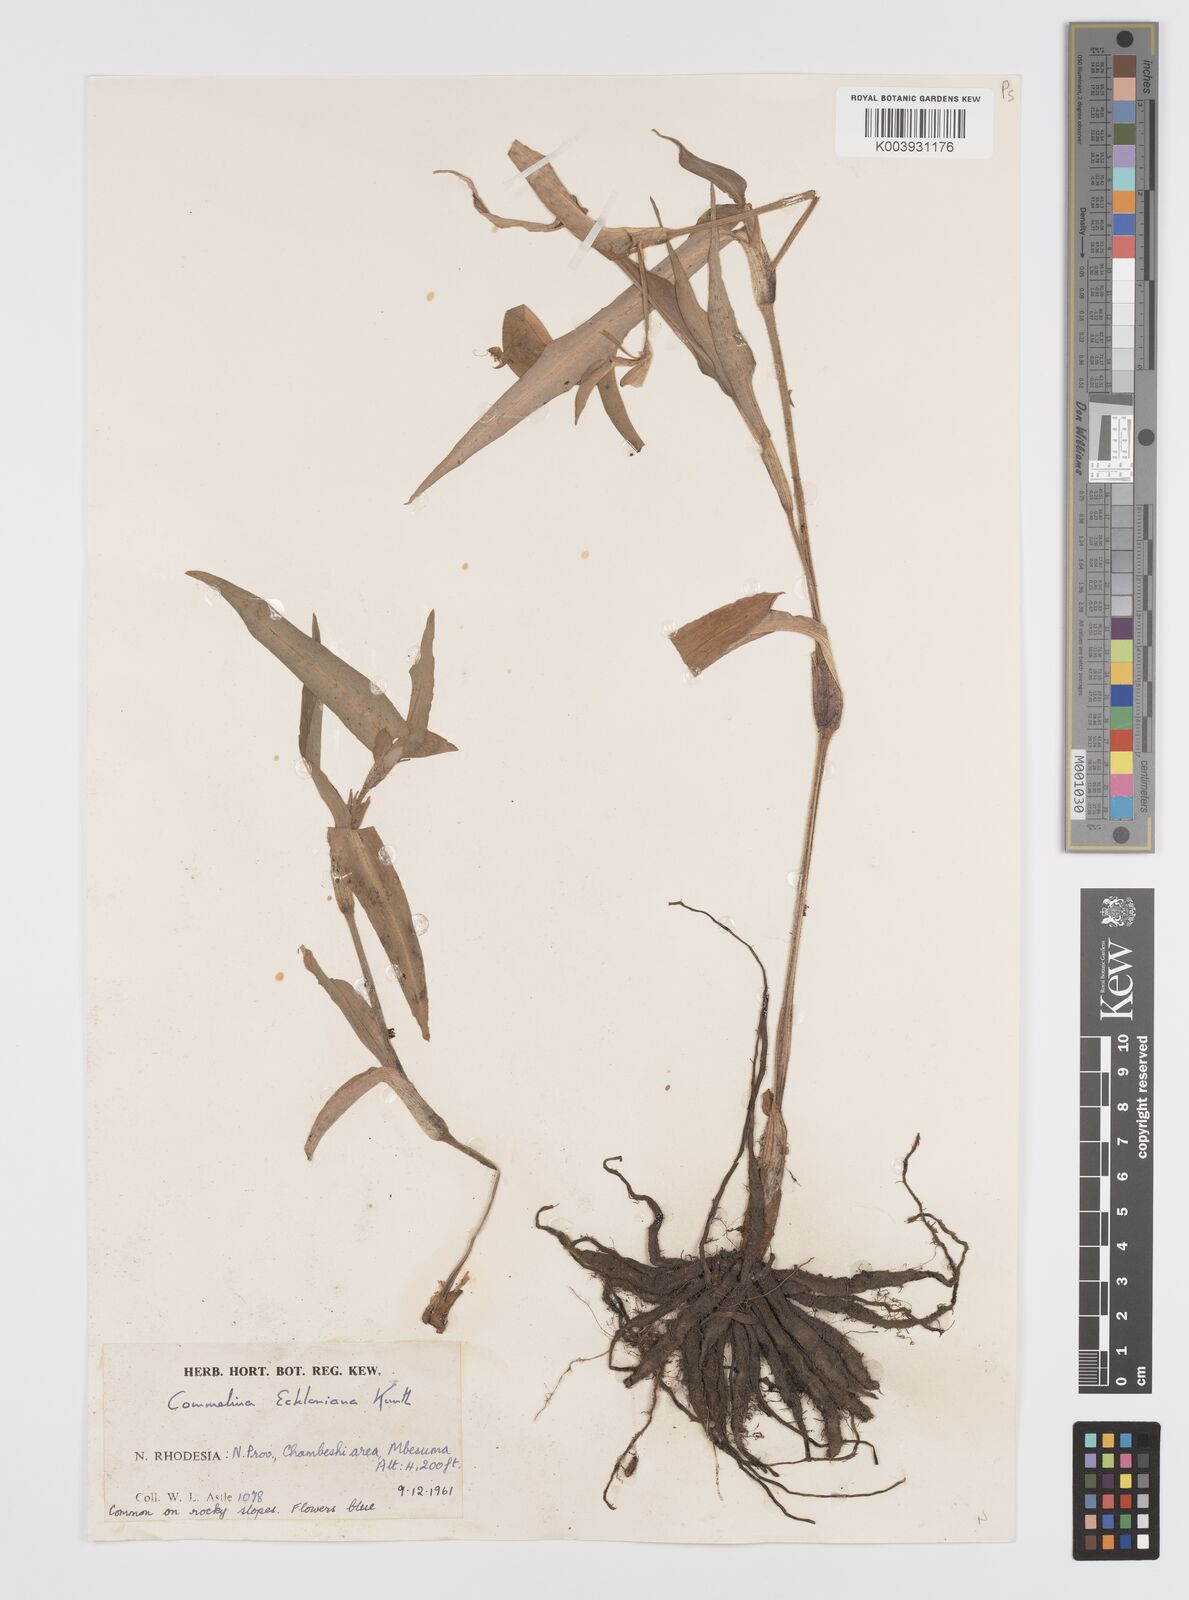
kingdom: Plantae
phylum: Tracheophyta
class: Liliopsida
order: Commelinales
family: Commelinaceae
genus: Commelina
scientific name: Commelina eckloniana
